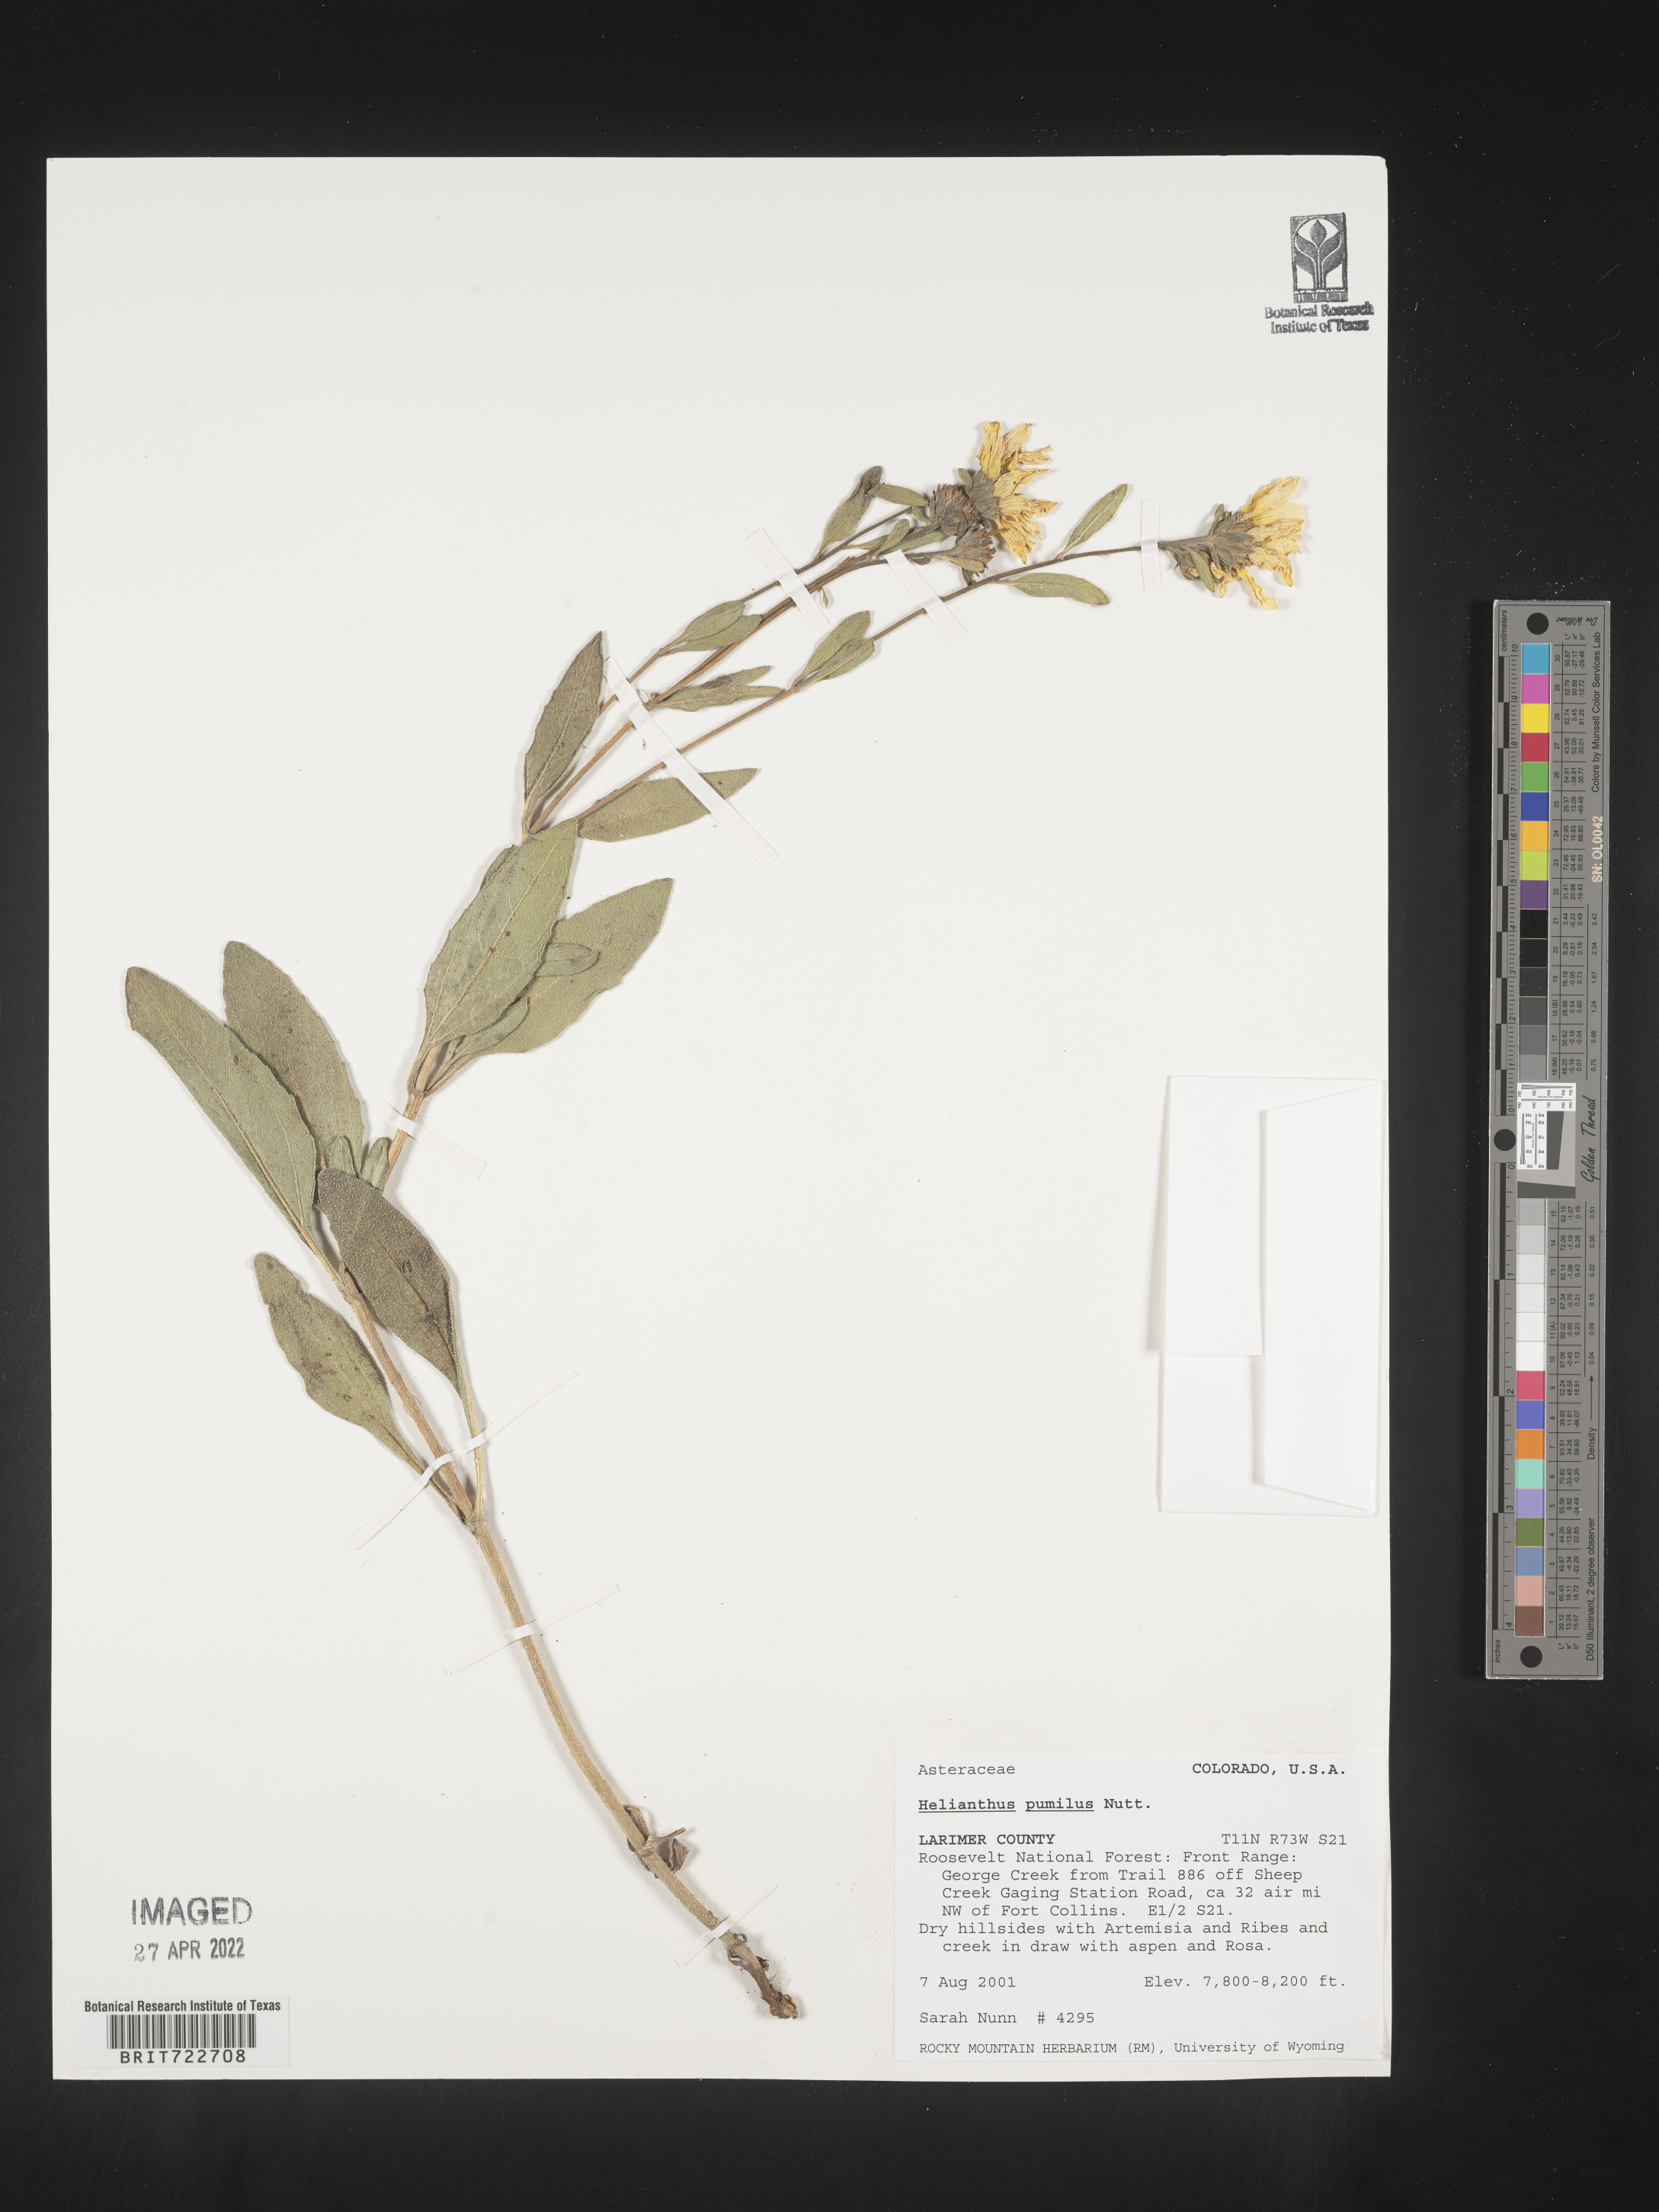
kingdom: Plantae
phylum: Tracheophyta
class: Magnoliopsida
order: Asterales
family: Asteraceae
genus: Helianthus
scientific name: Helianthus pumilus
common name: Dwarf sunflower
